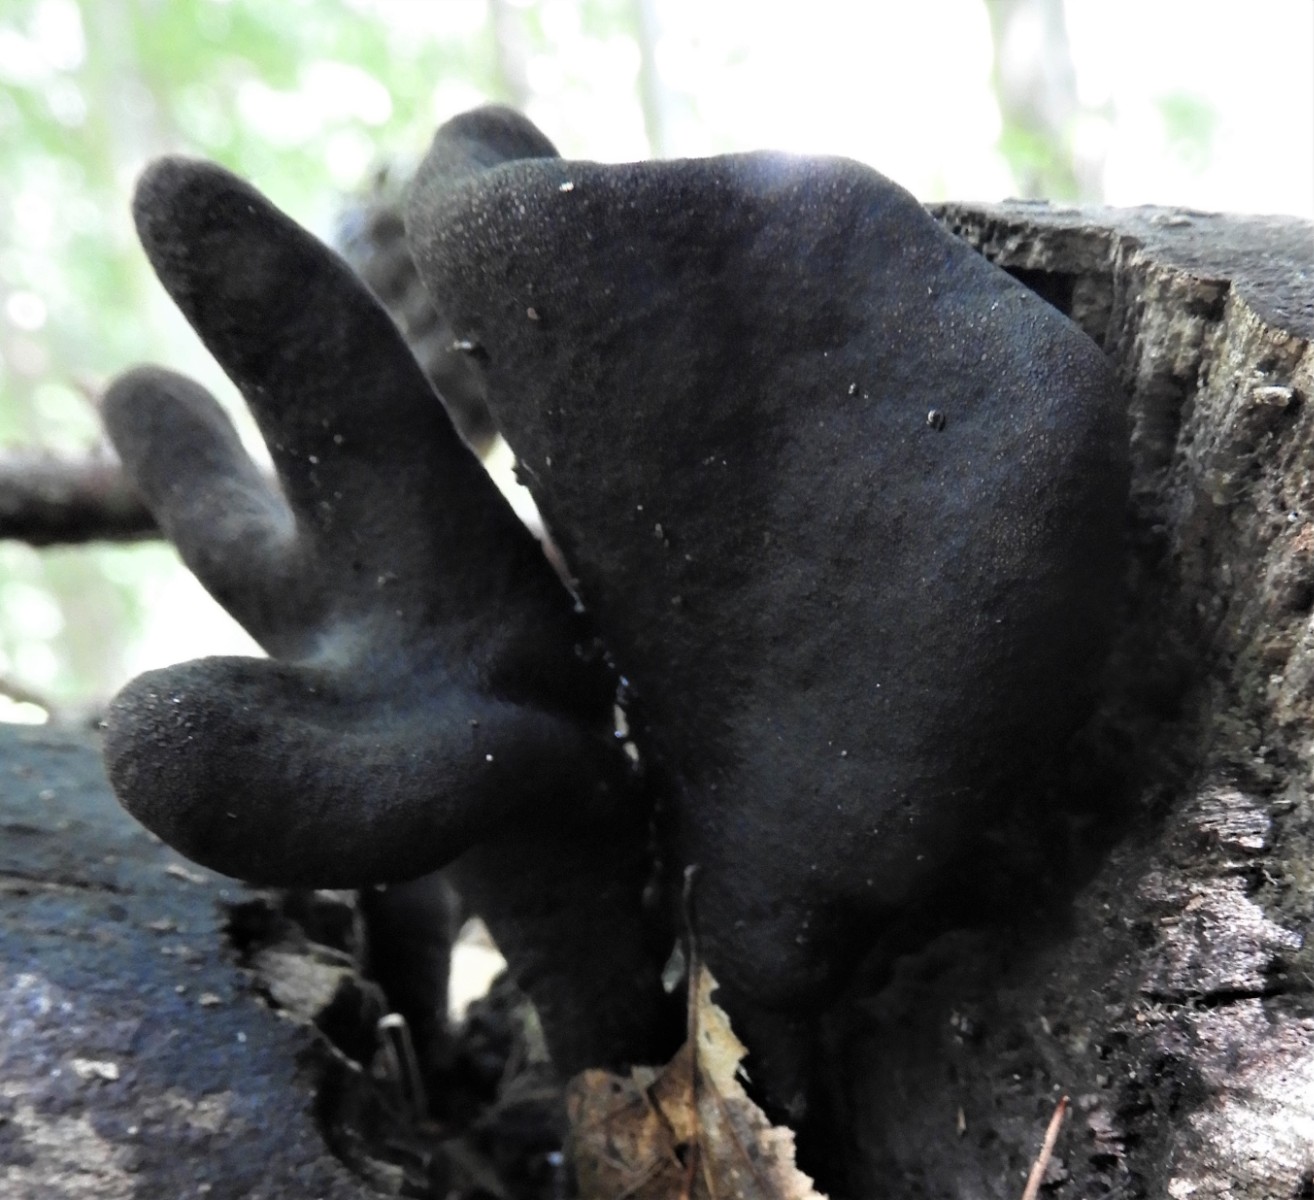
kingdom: Fungi
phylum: Ascomycota
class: Sordariomycetes
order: Xylariales
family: Xylariaceae
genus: Xylaria
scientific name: Xylaria polymorpha
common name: kølle-stødsvamp
